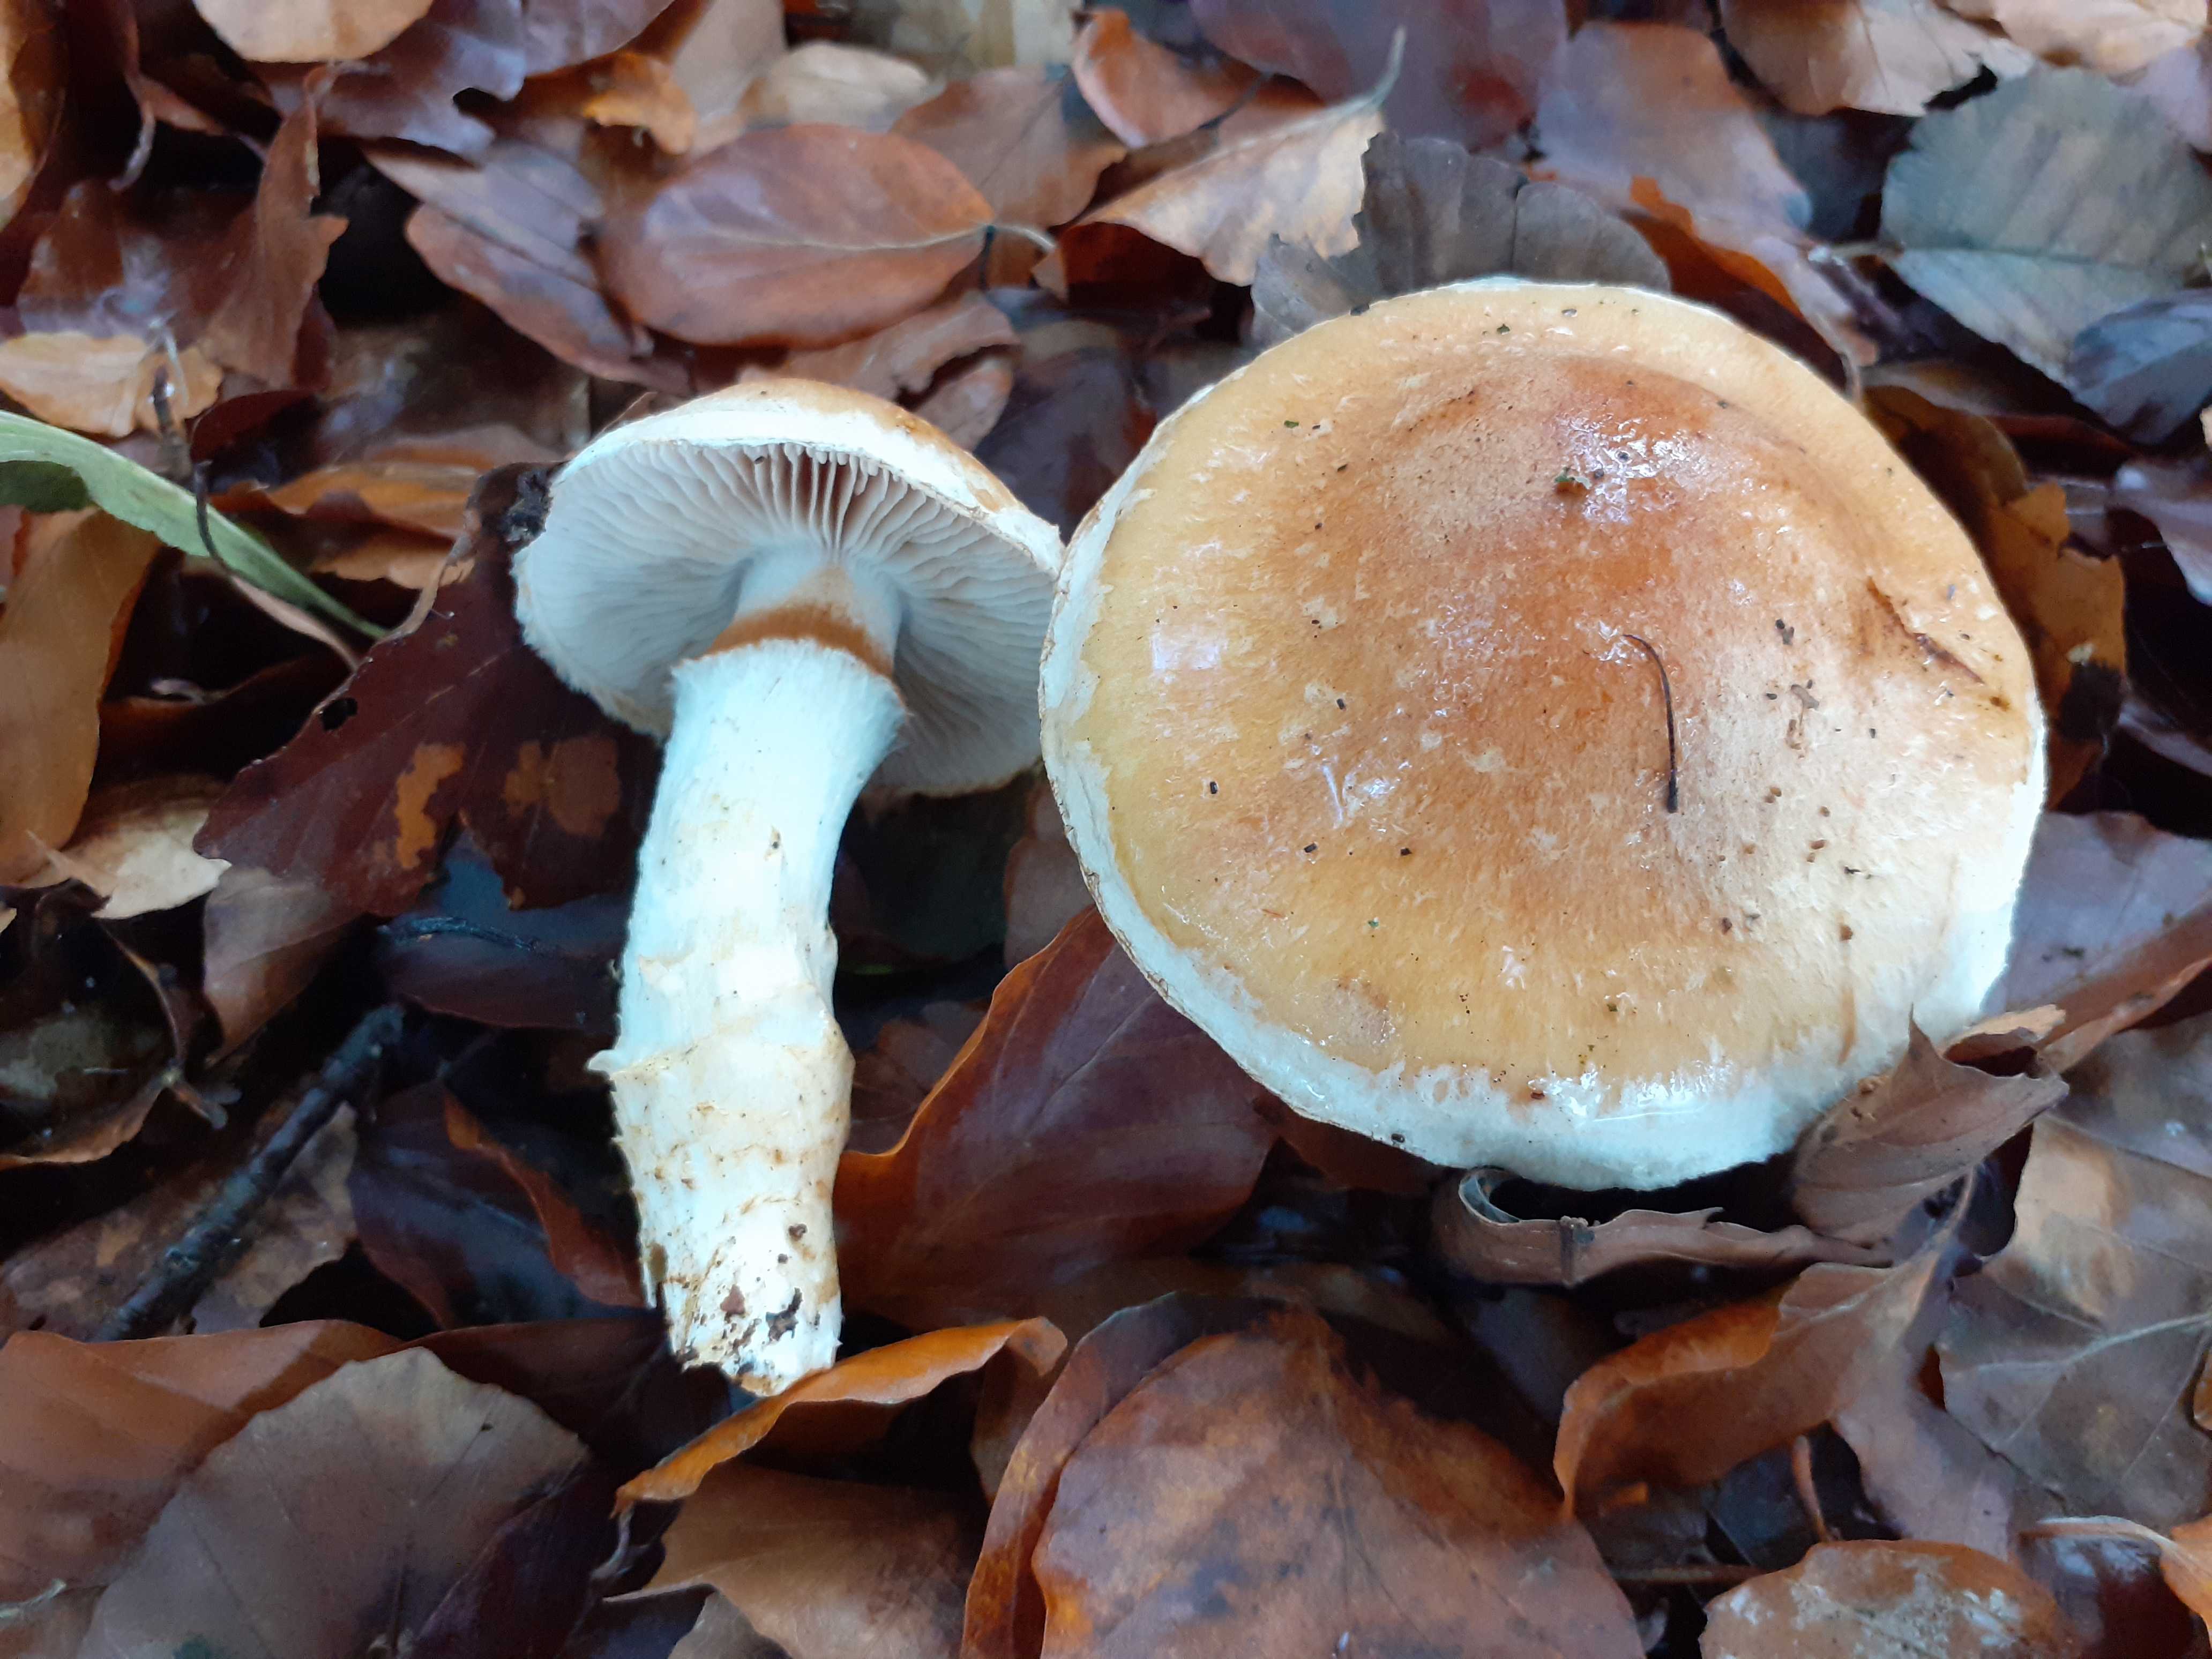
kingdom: Fungi
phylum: Basidiomycota
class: Agaricomycetes
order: Agaricales
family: Cortinariaceae
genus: Phlegmacium
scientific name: Phlegmacium vulpinum
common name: ringbæltet slørhat
